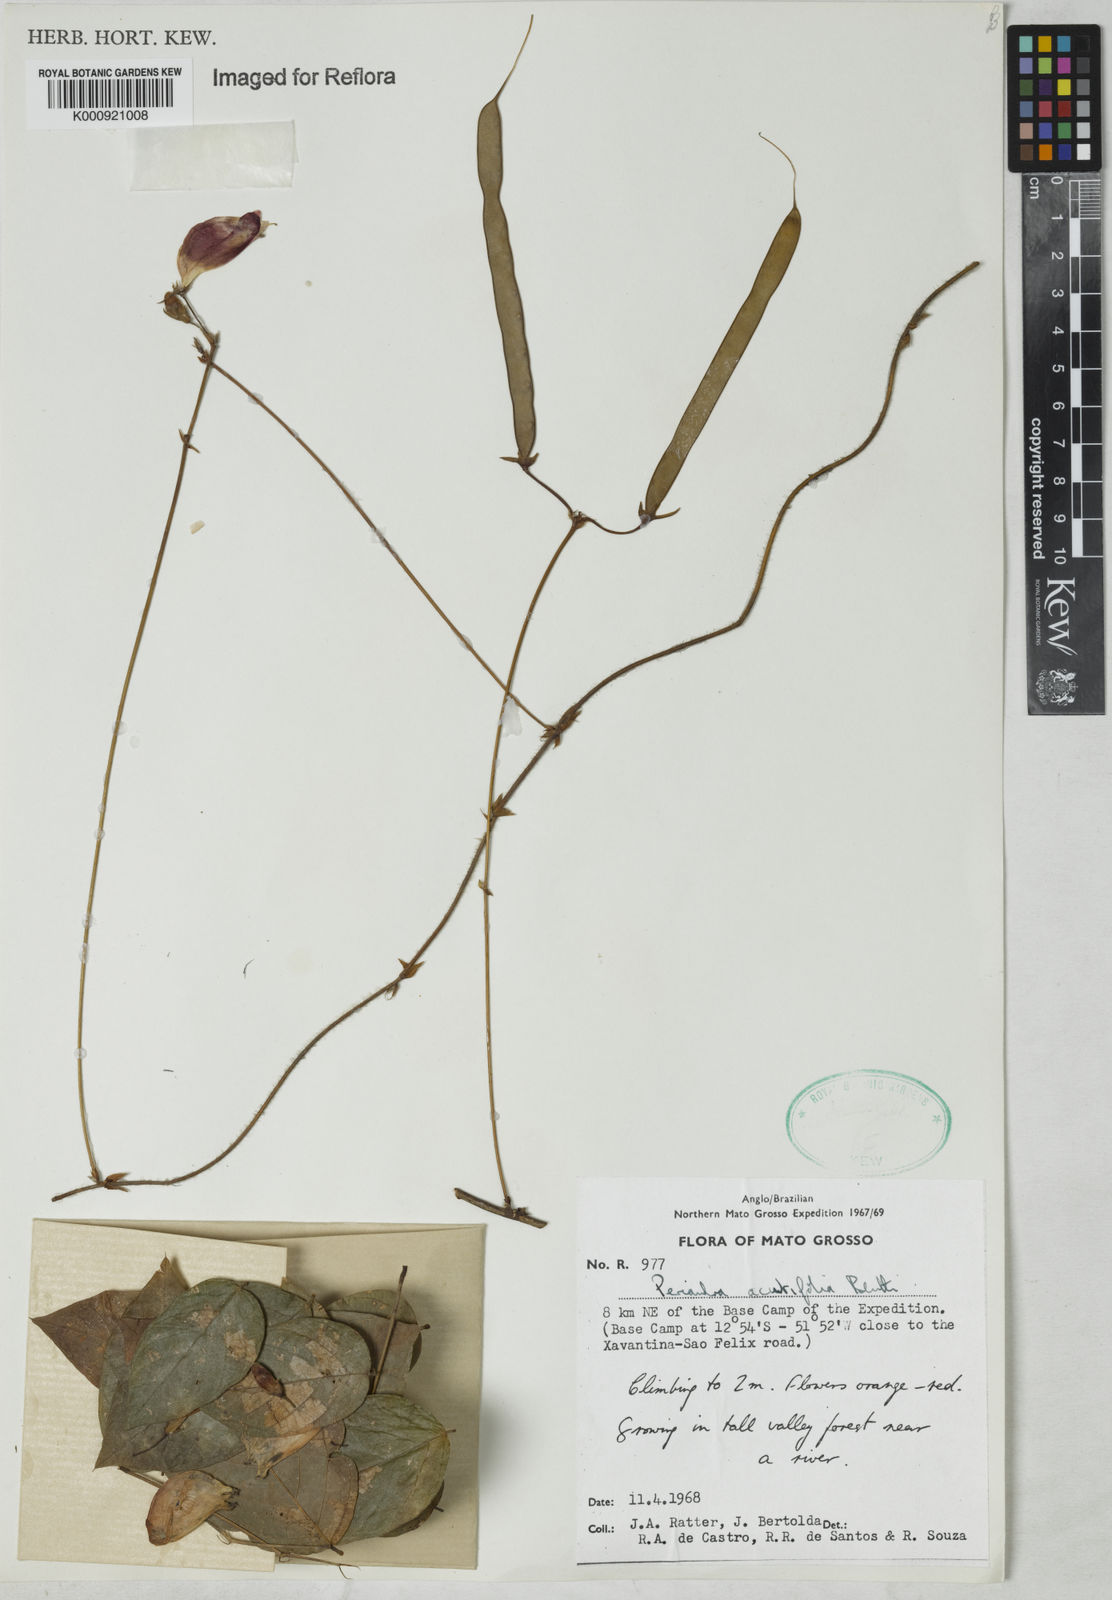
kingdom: Plantae
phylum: Tracheophyta
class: Magnoliopsida
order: Fabales
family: Fabaceae
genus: Periandra
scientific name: Periandra coccinea
